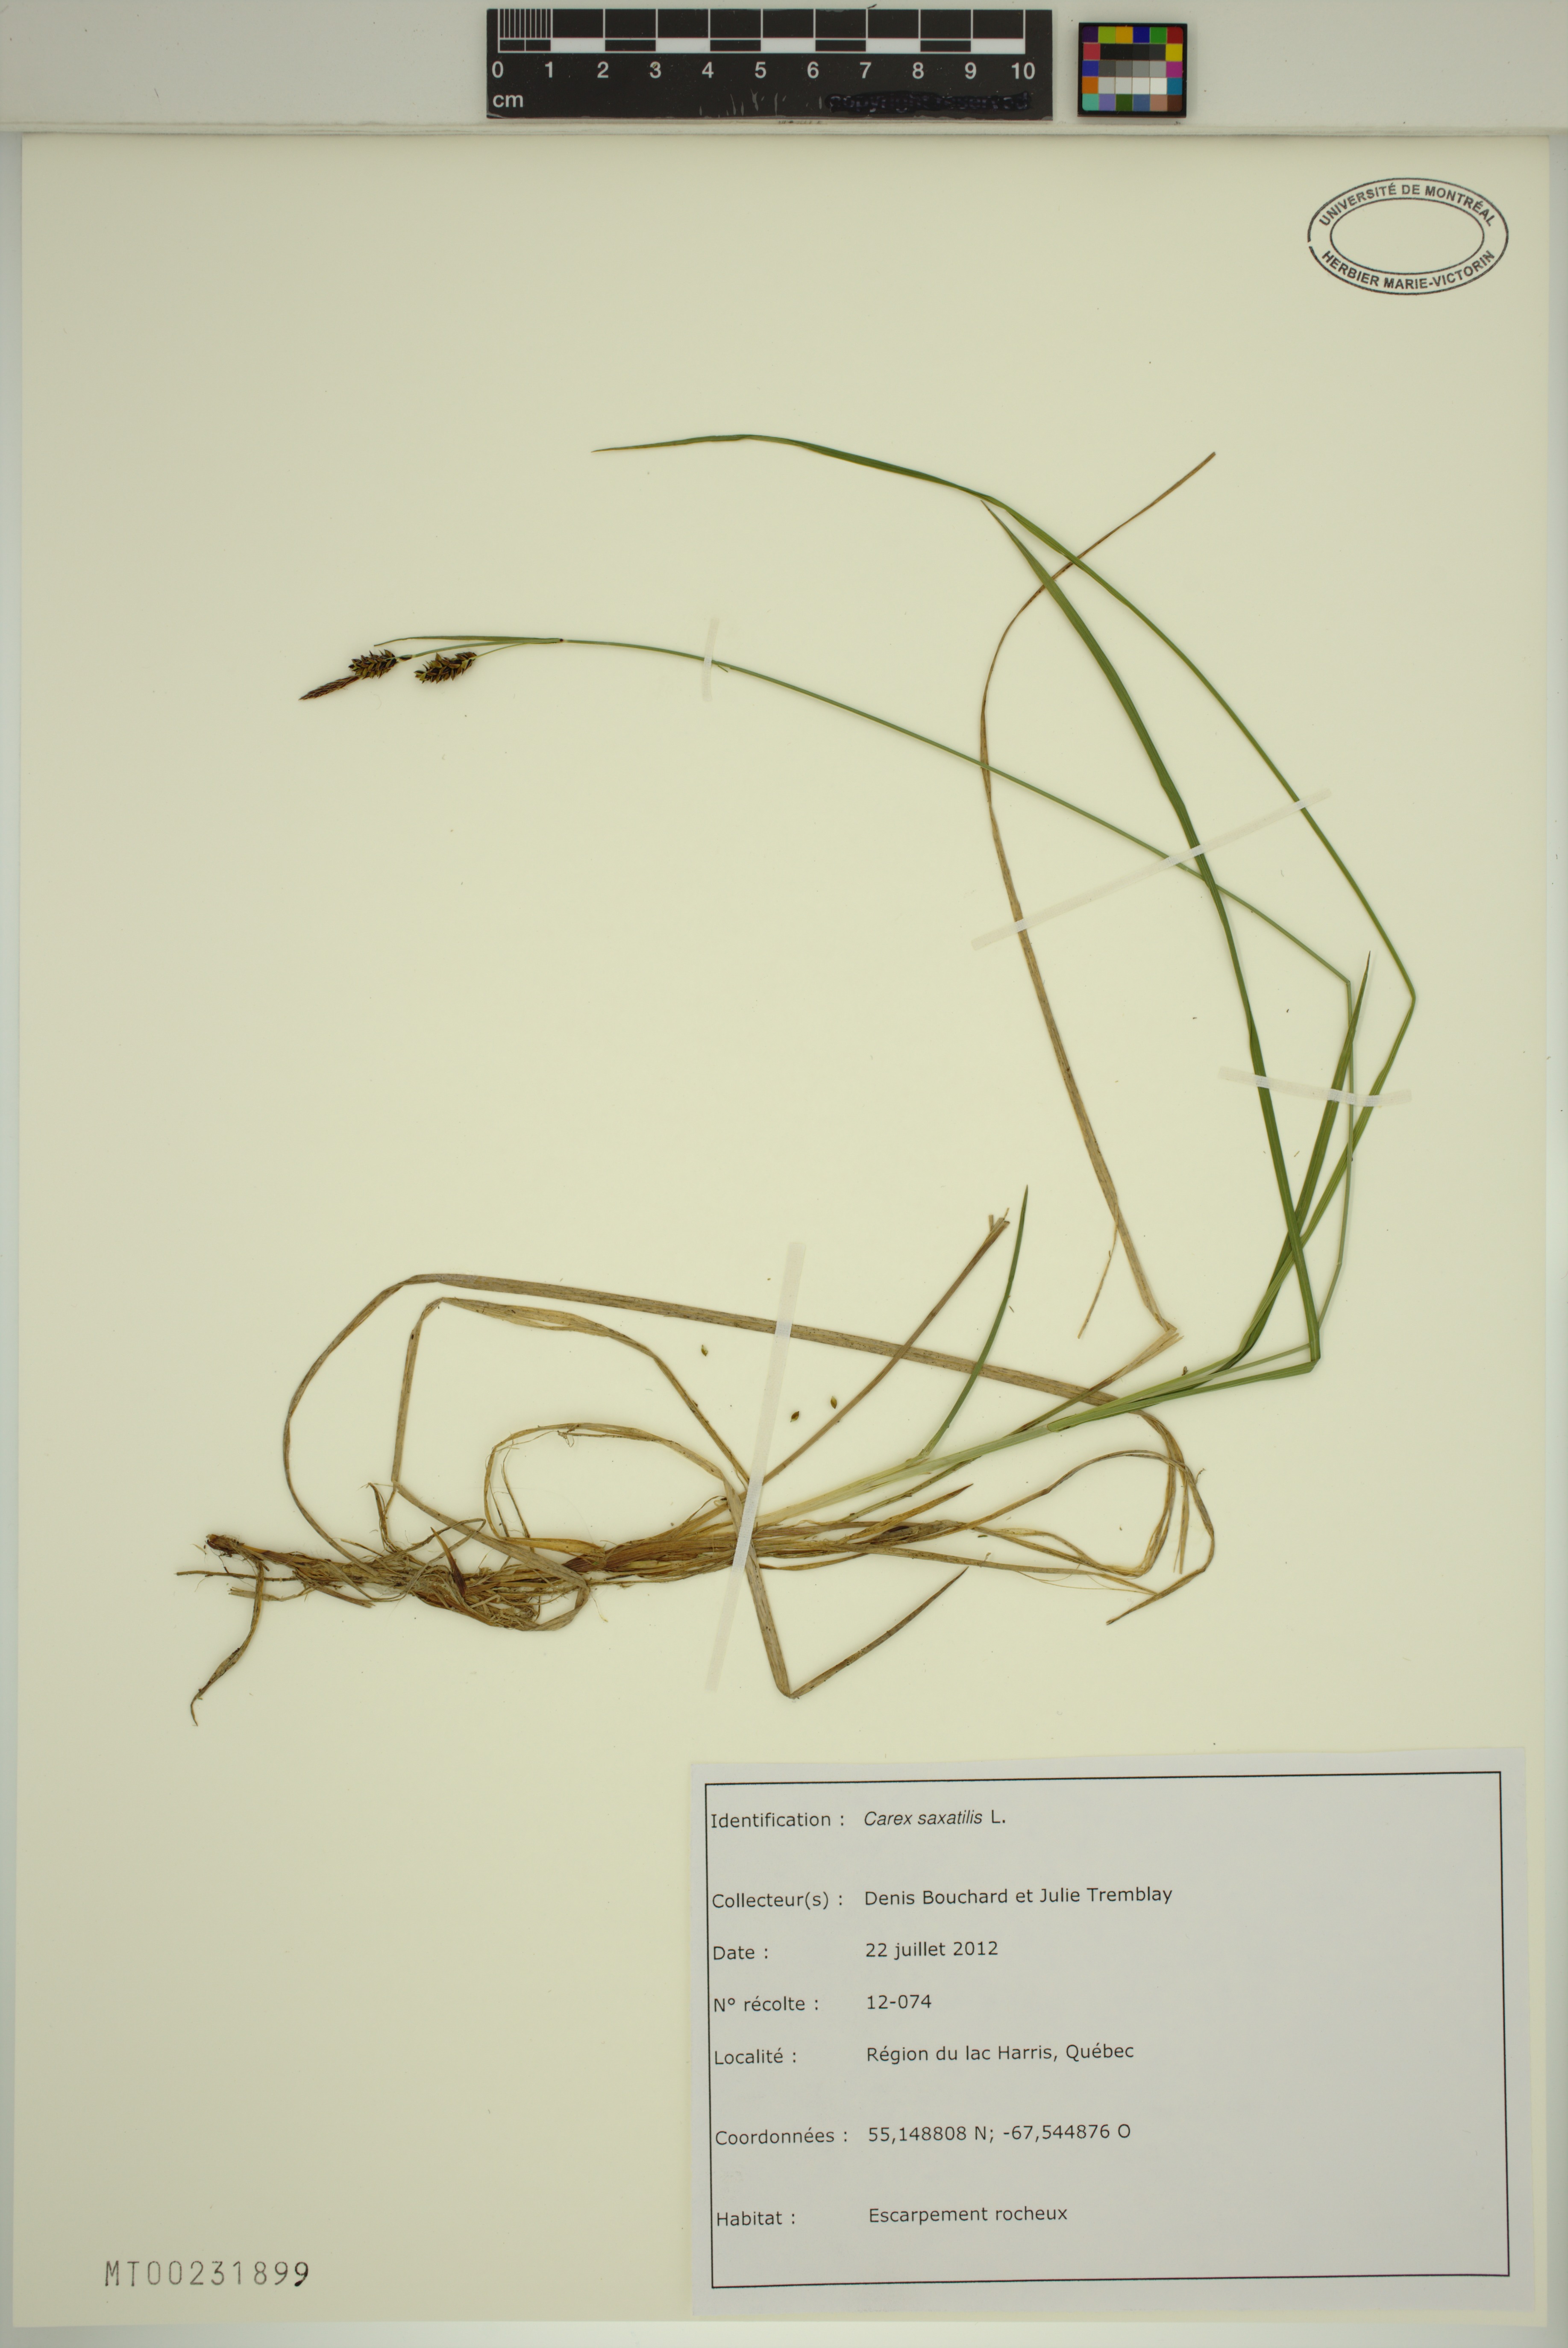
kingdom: Plantae
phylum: Tracheophyta
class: Liliopsida
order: Poales
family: Cyperaceae
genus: Carex
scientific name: Carex saxatilis
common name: Russet sedge
